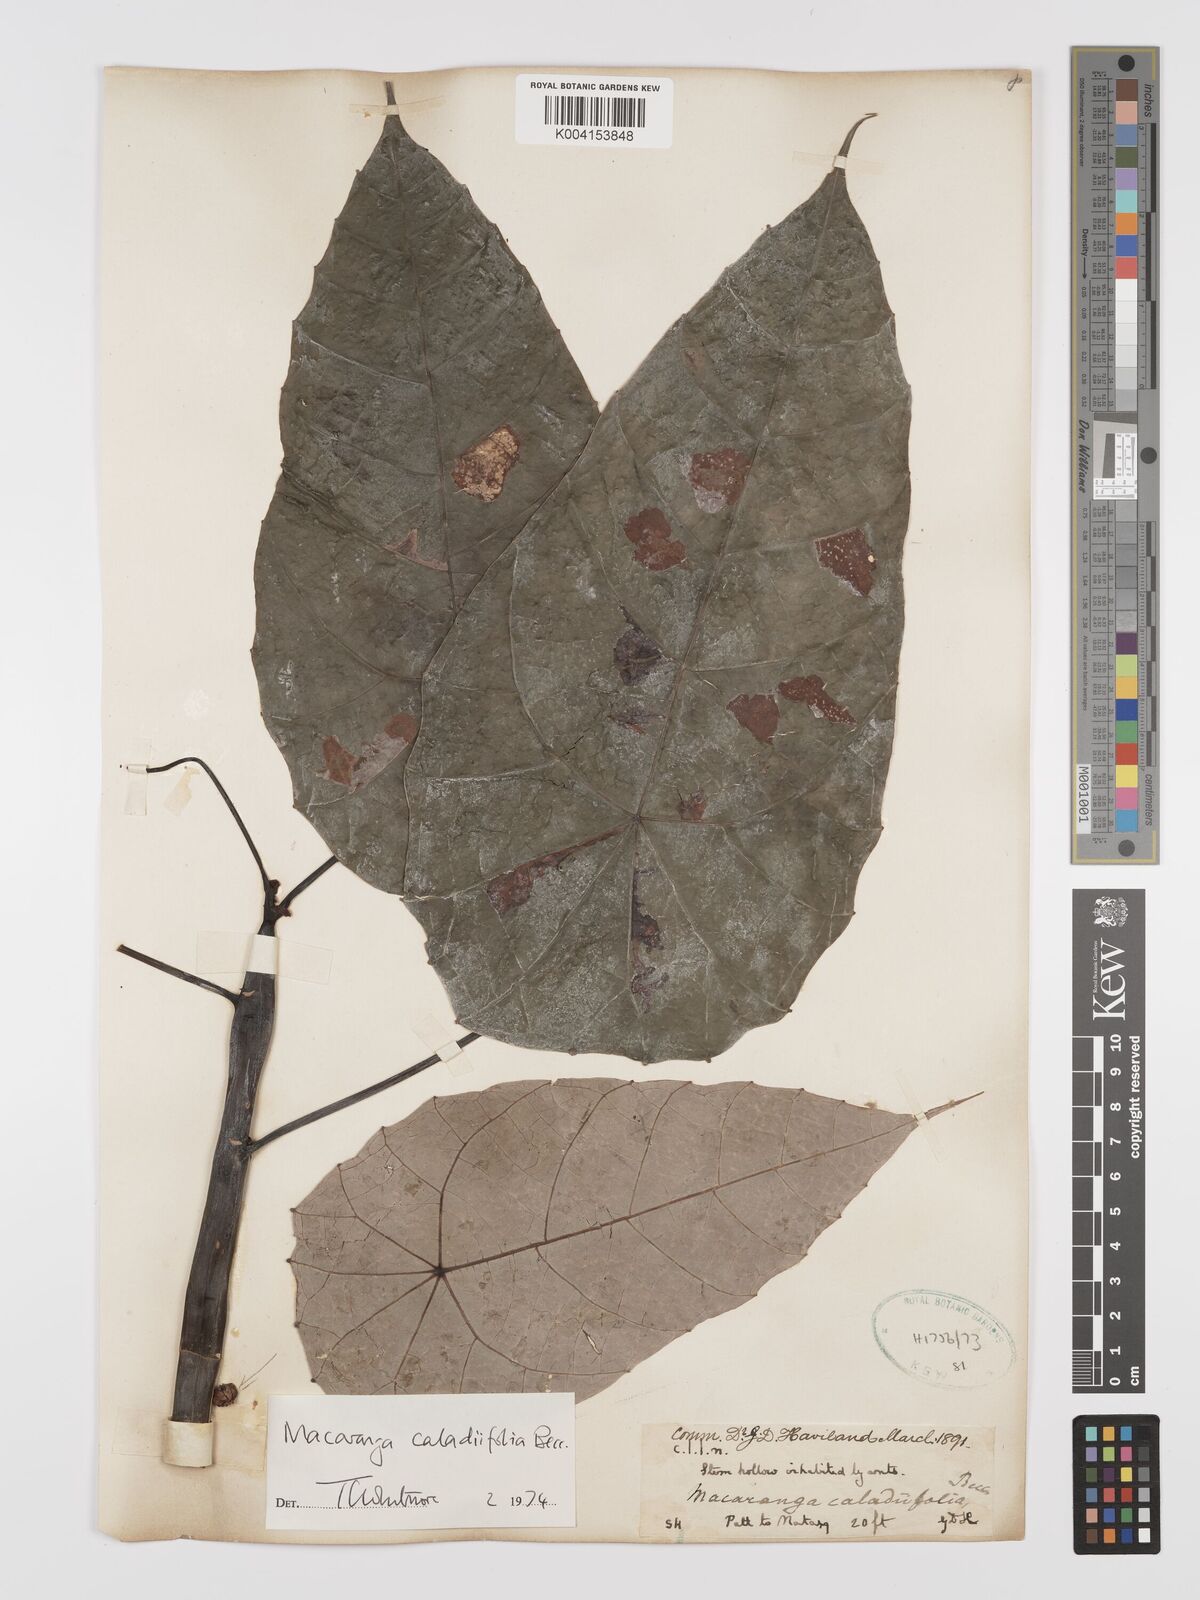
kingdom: Plantae
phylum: Tracheophyta
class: Magnoliopsida
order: Malpighiales
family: Euphorbiaceae
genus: Macaranga
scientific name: Macaranga caladiifolia
